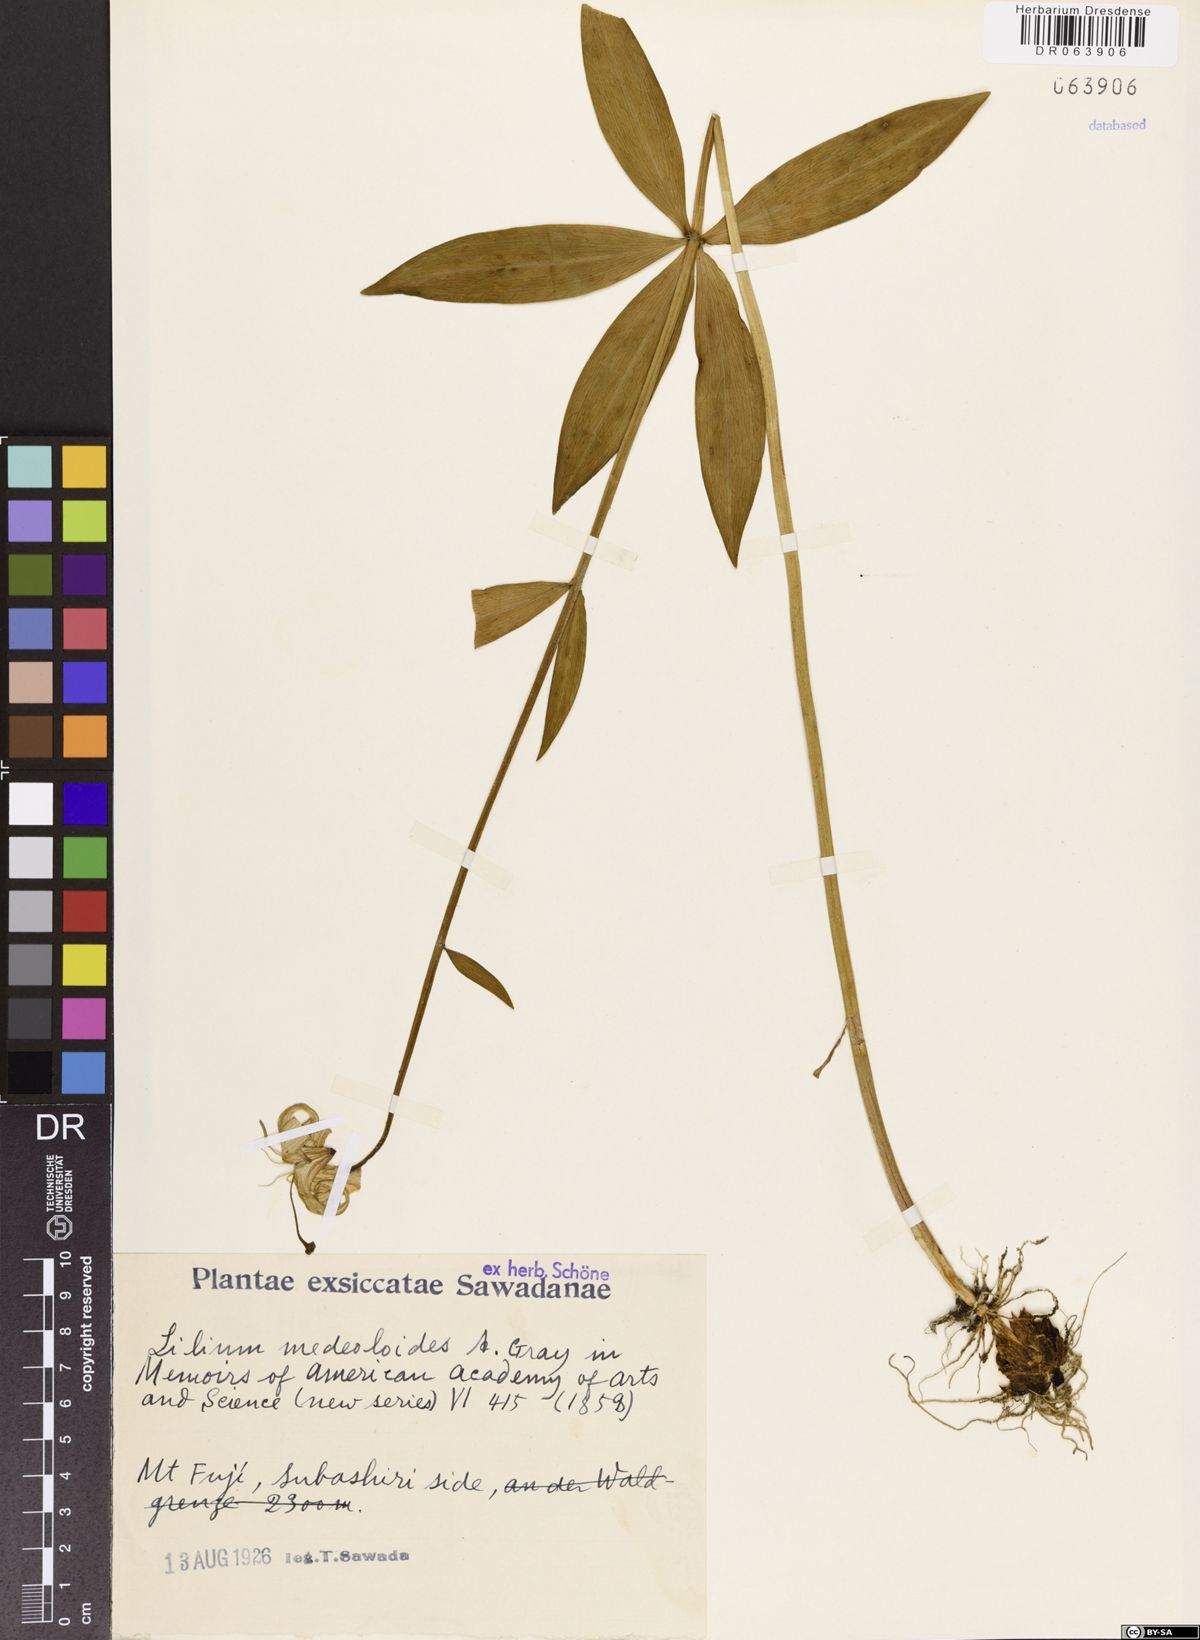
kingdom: Plantae
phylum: Tracheophyta
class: Liliopsida
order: Liliales
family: Liliaceae
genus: Lilium
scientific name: Lilium medeoloides
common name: Wheel lily
